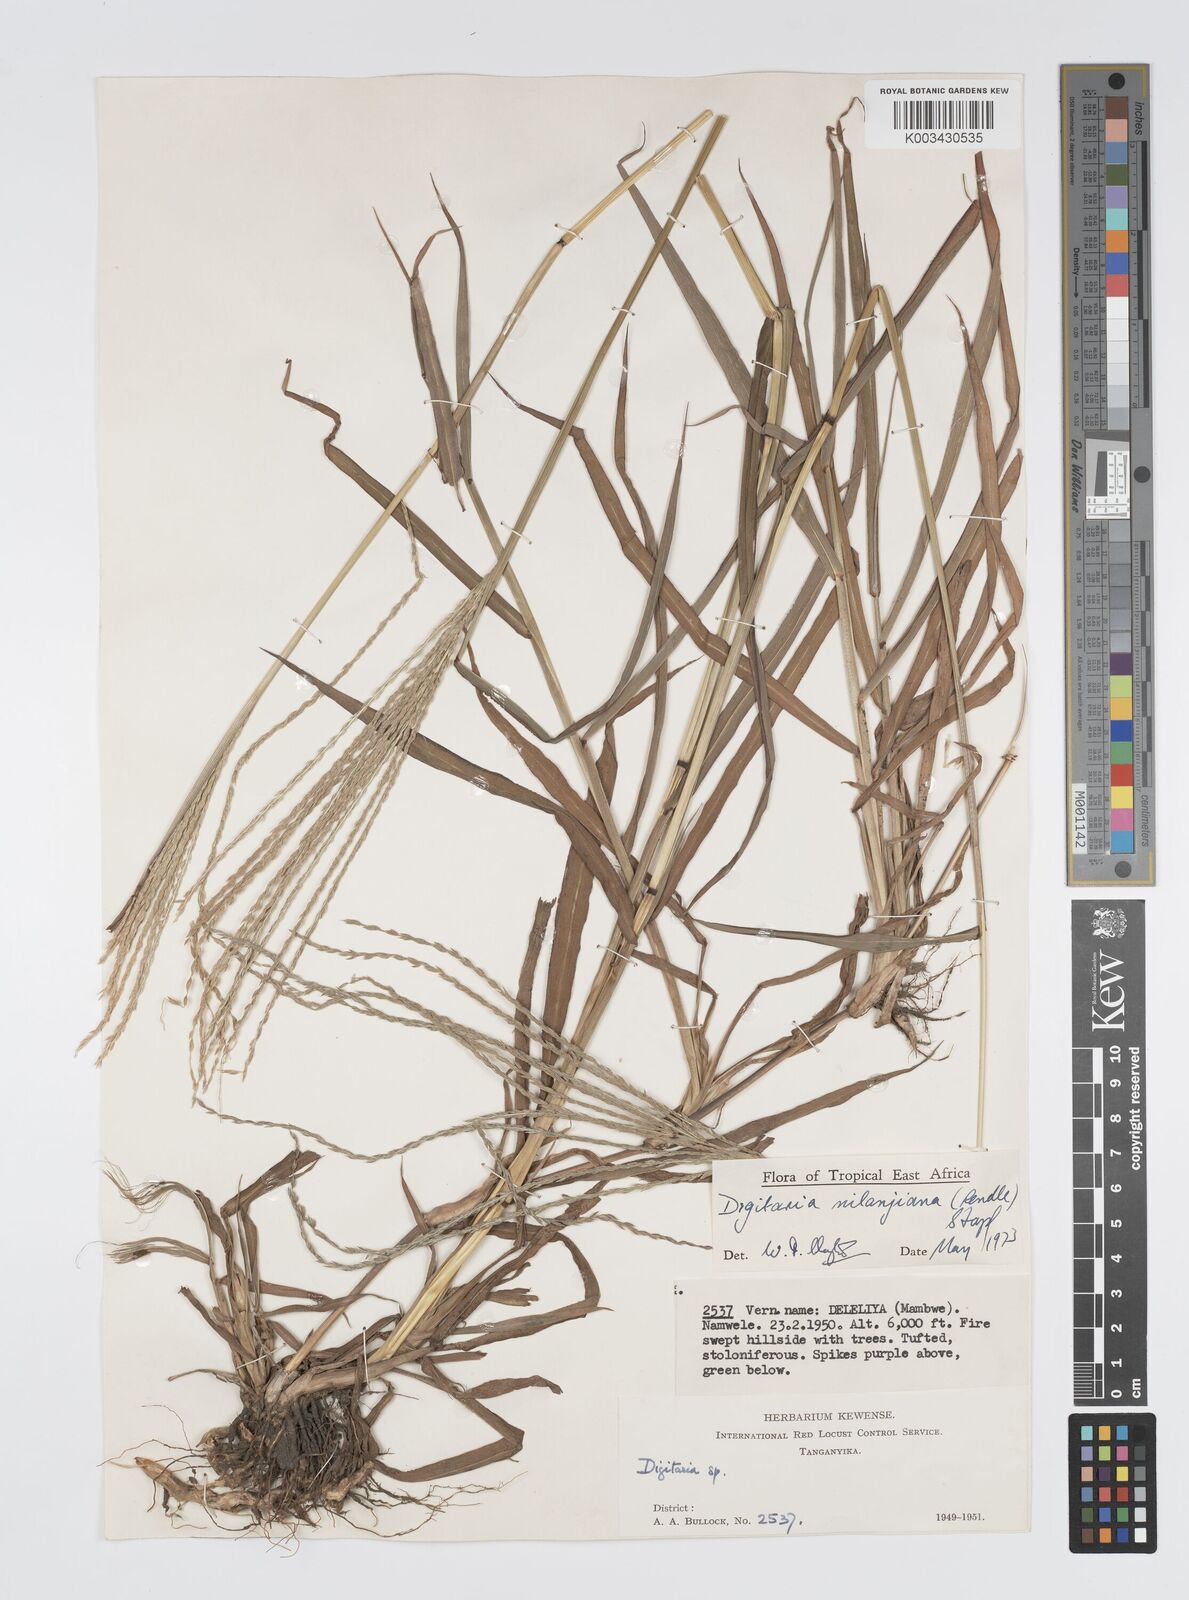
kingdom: Plantae
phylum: Tracheophyta
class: Liliopsida
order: Poales
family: Poaceae
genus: Digitaria
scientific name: Digitaria milanjiana
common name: Madagascar crabgrass
